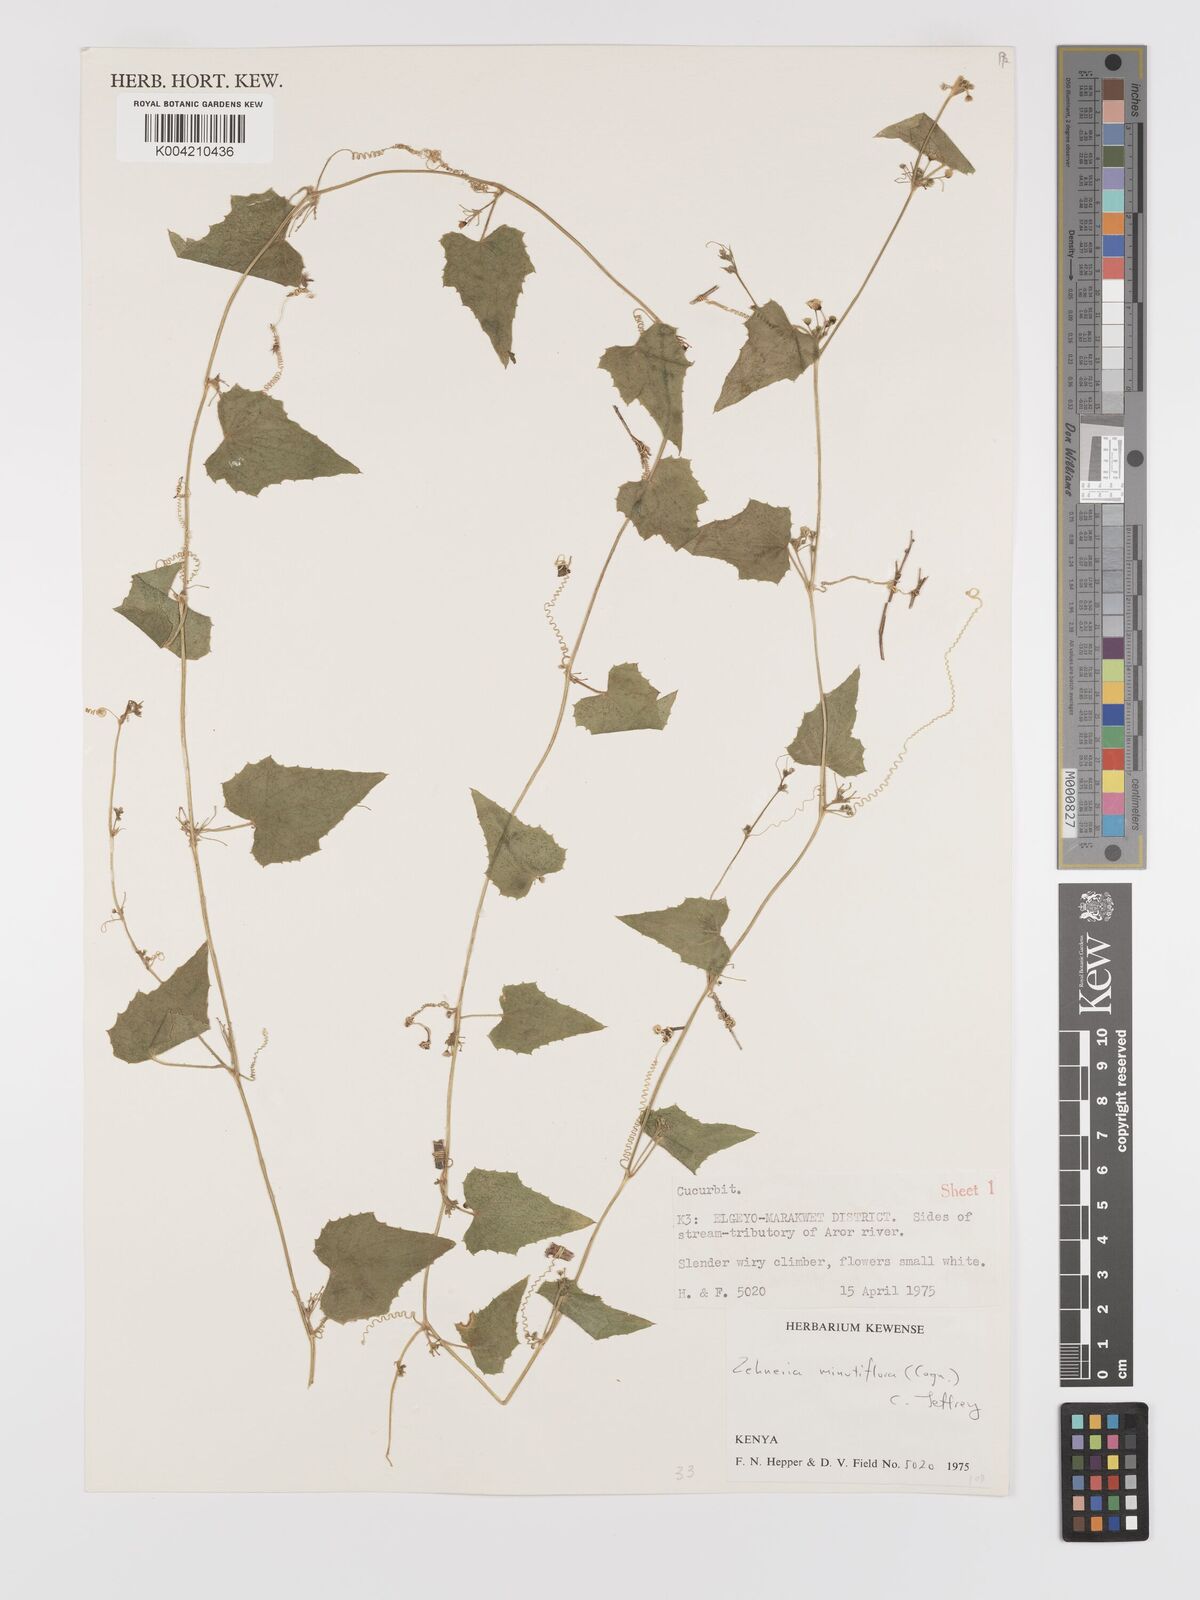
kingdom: Plantae
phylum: Tracheophyta
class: Magnoliopsida
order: Cucurbitales
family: Cucurbitaceae
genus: Zehneria
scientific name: Zehneria minutiflora
